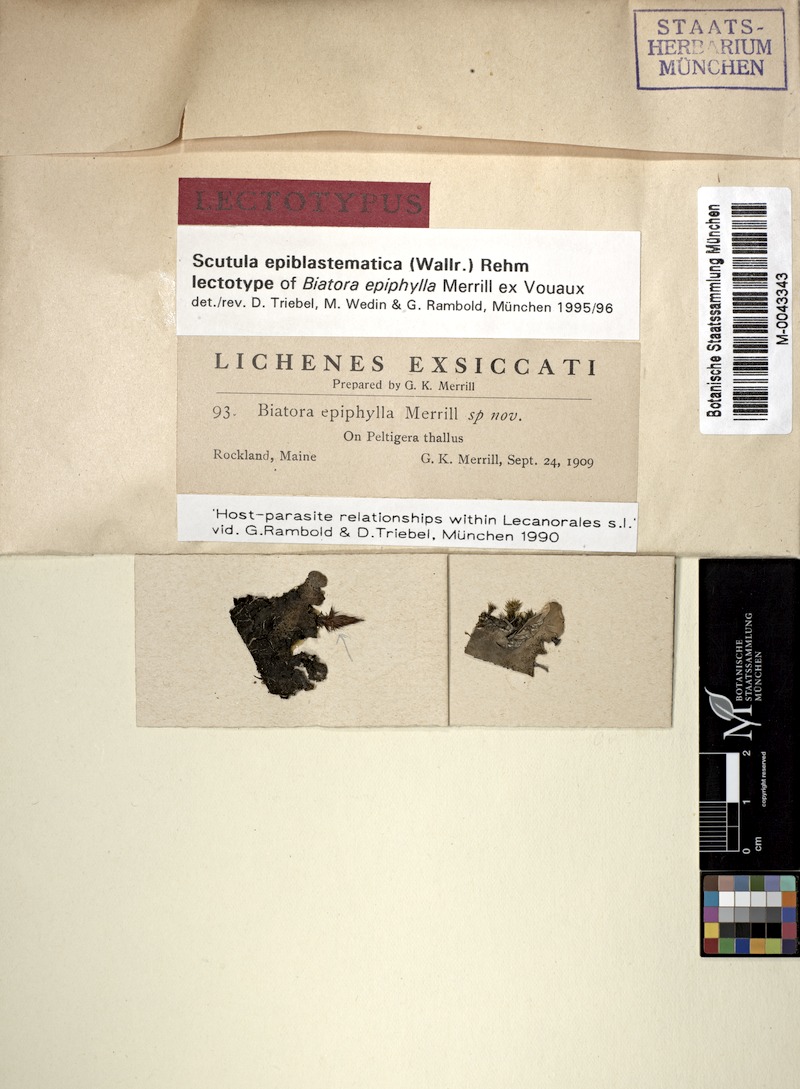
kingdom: Fungi
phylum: Ascomycota
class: Lecanoromycetes
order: Peltigerales
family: Peltigeraceae
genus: Peltigera
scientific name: Peltigera
